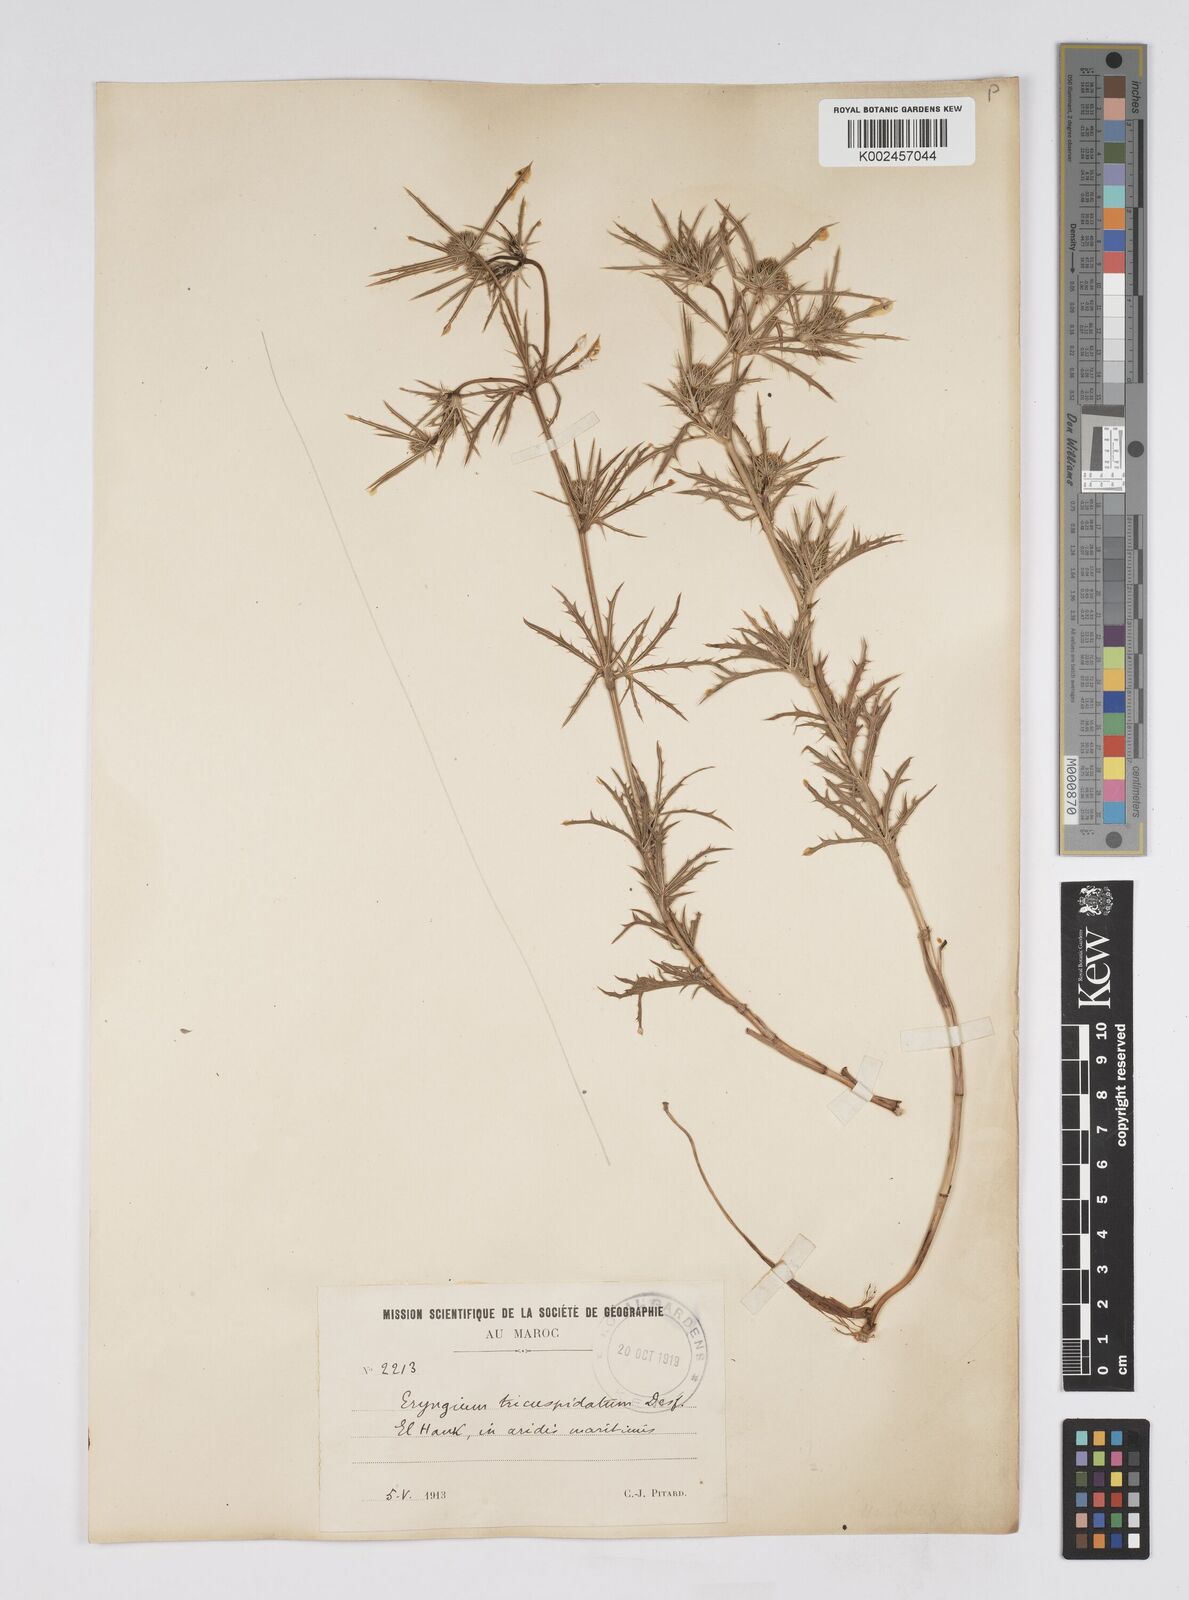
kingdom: Plantae
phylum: Tracheophyta
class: Magnoliopsida
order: Apiales
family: Apiaceae
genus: Eryngium
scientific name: Eryngium tricuspidatum
